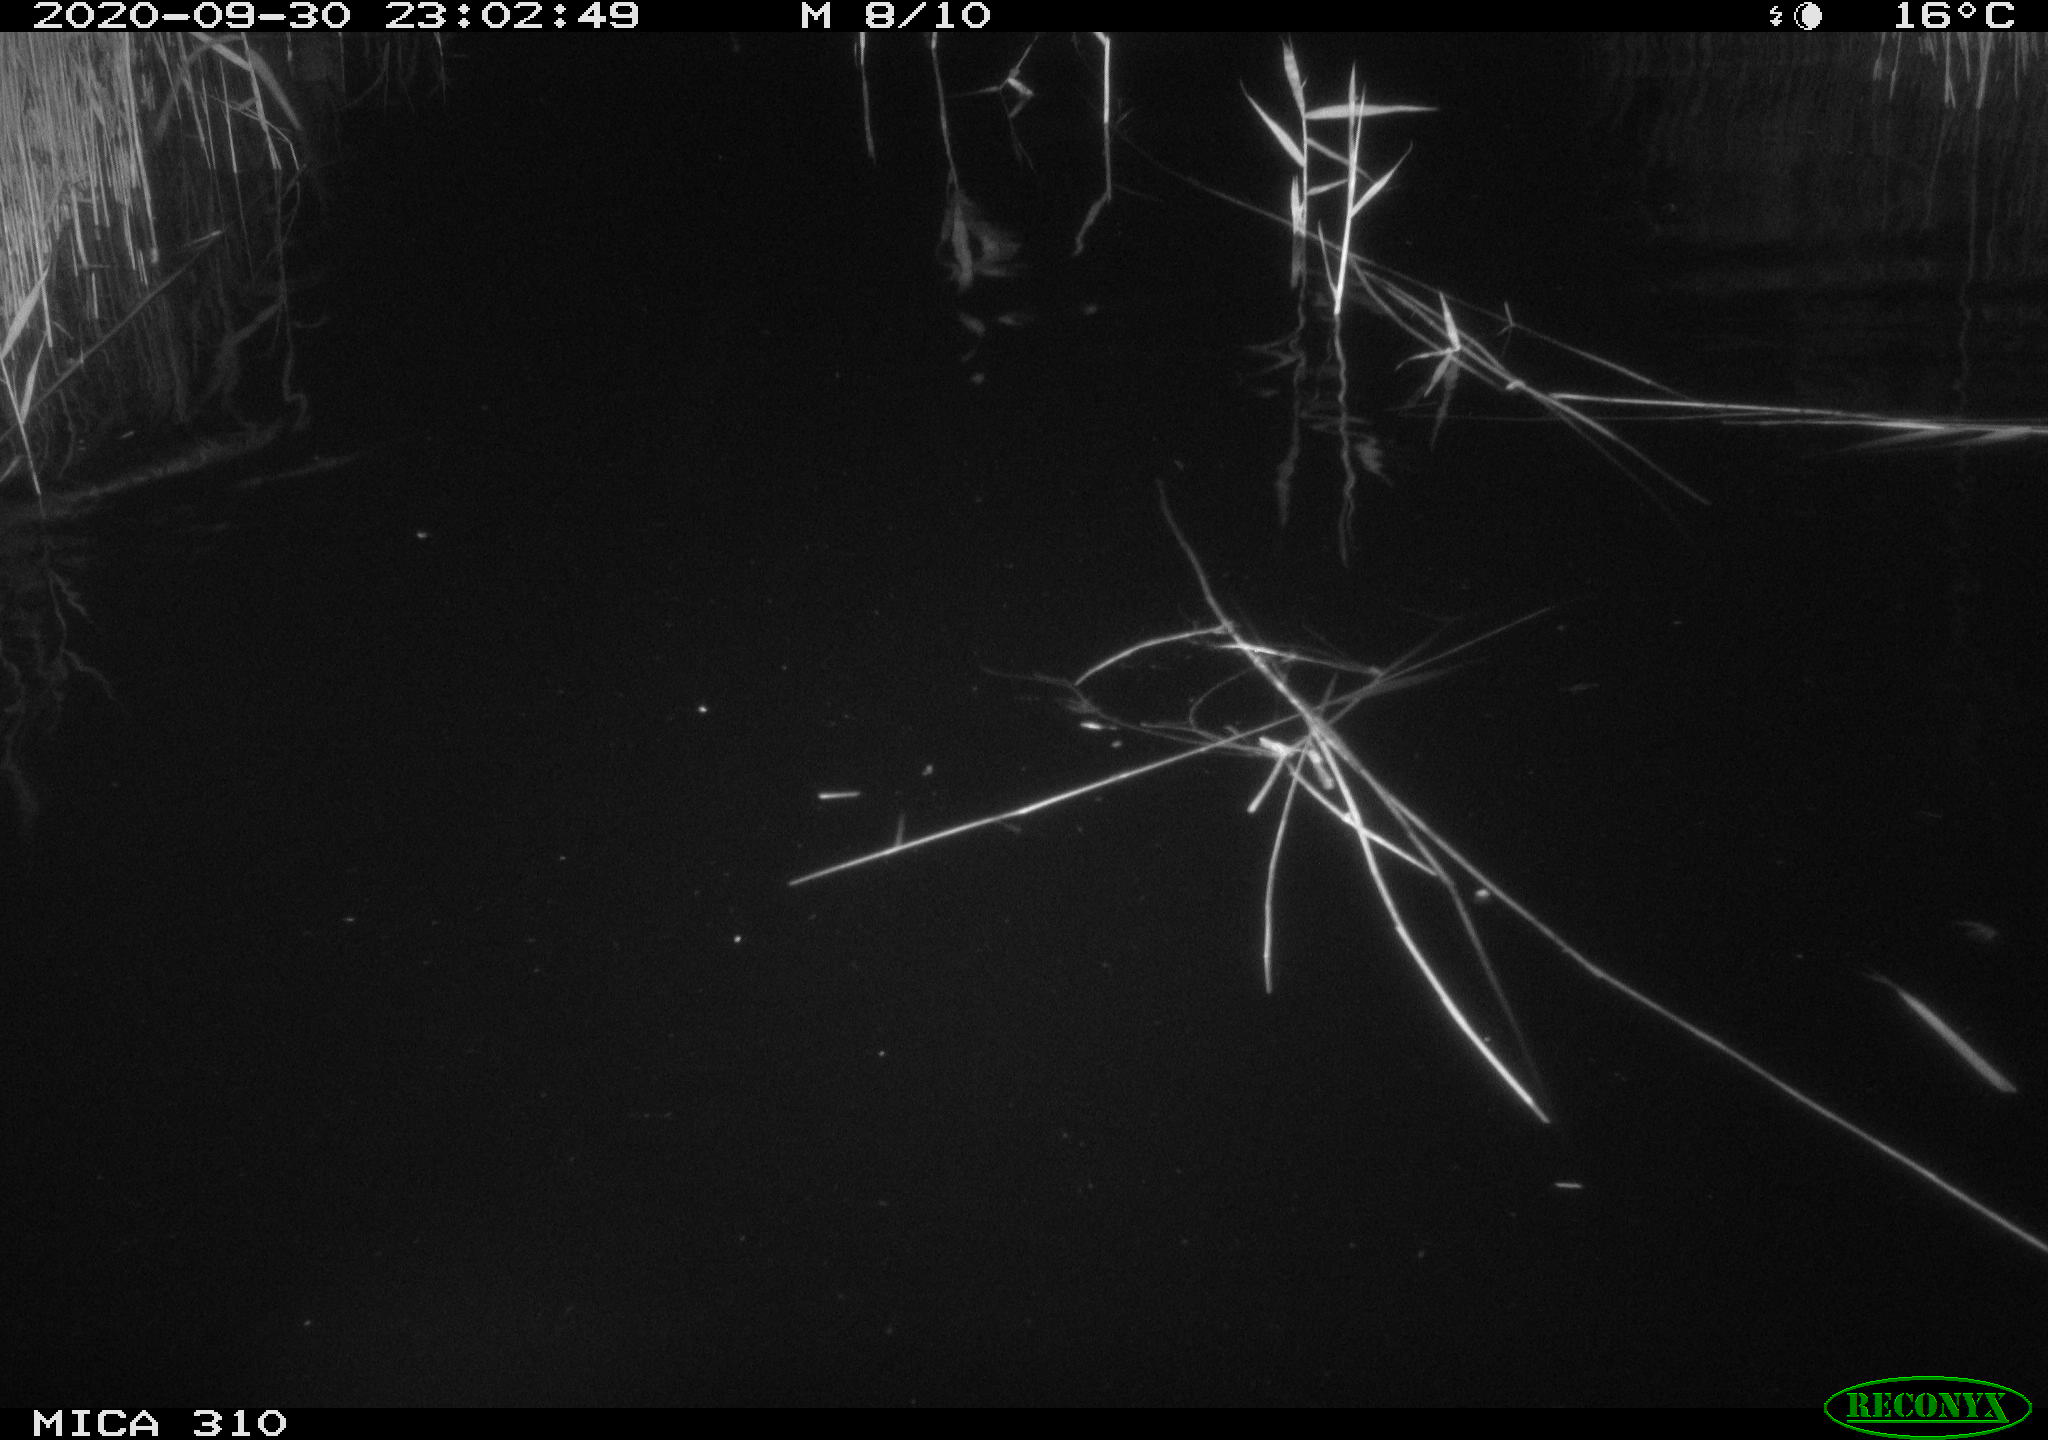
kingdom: Animalia
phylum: Chordata
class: Mammalia
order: Rodentia
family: Muridae
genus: Rattus
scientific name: Rattus norvegicus
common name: Brown rat
